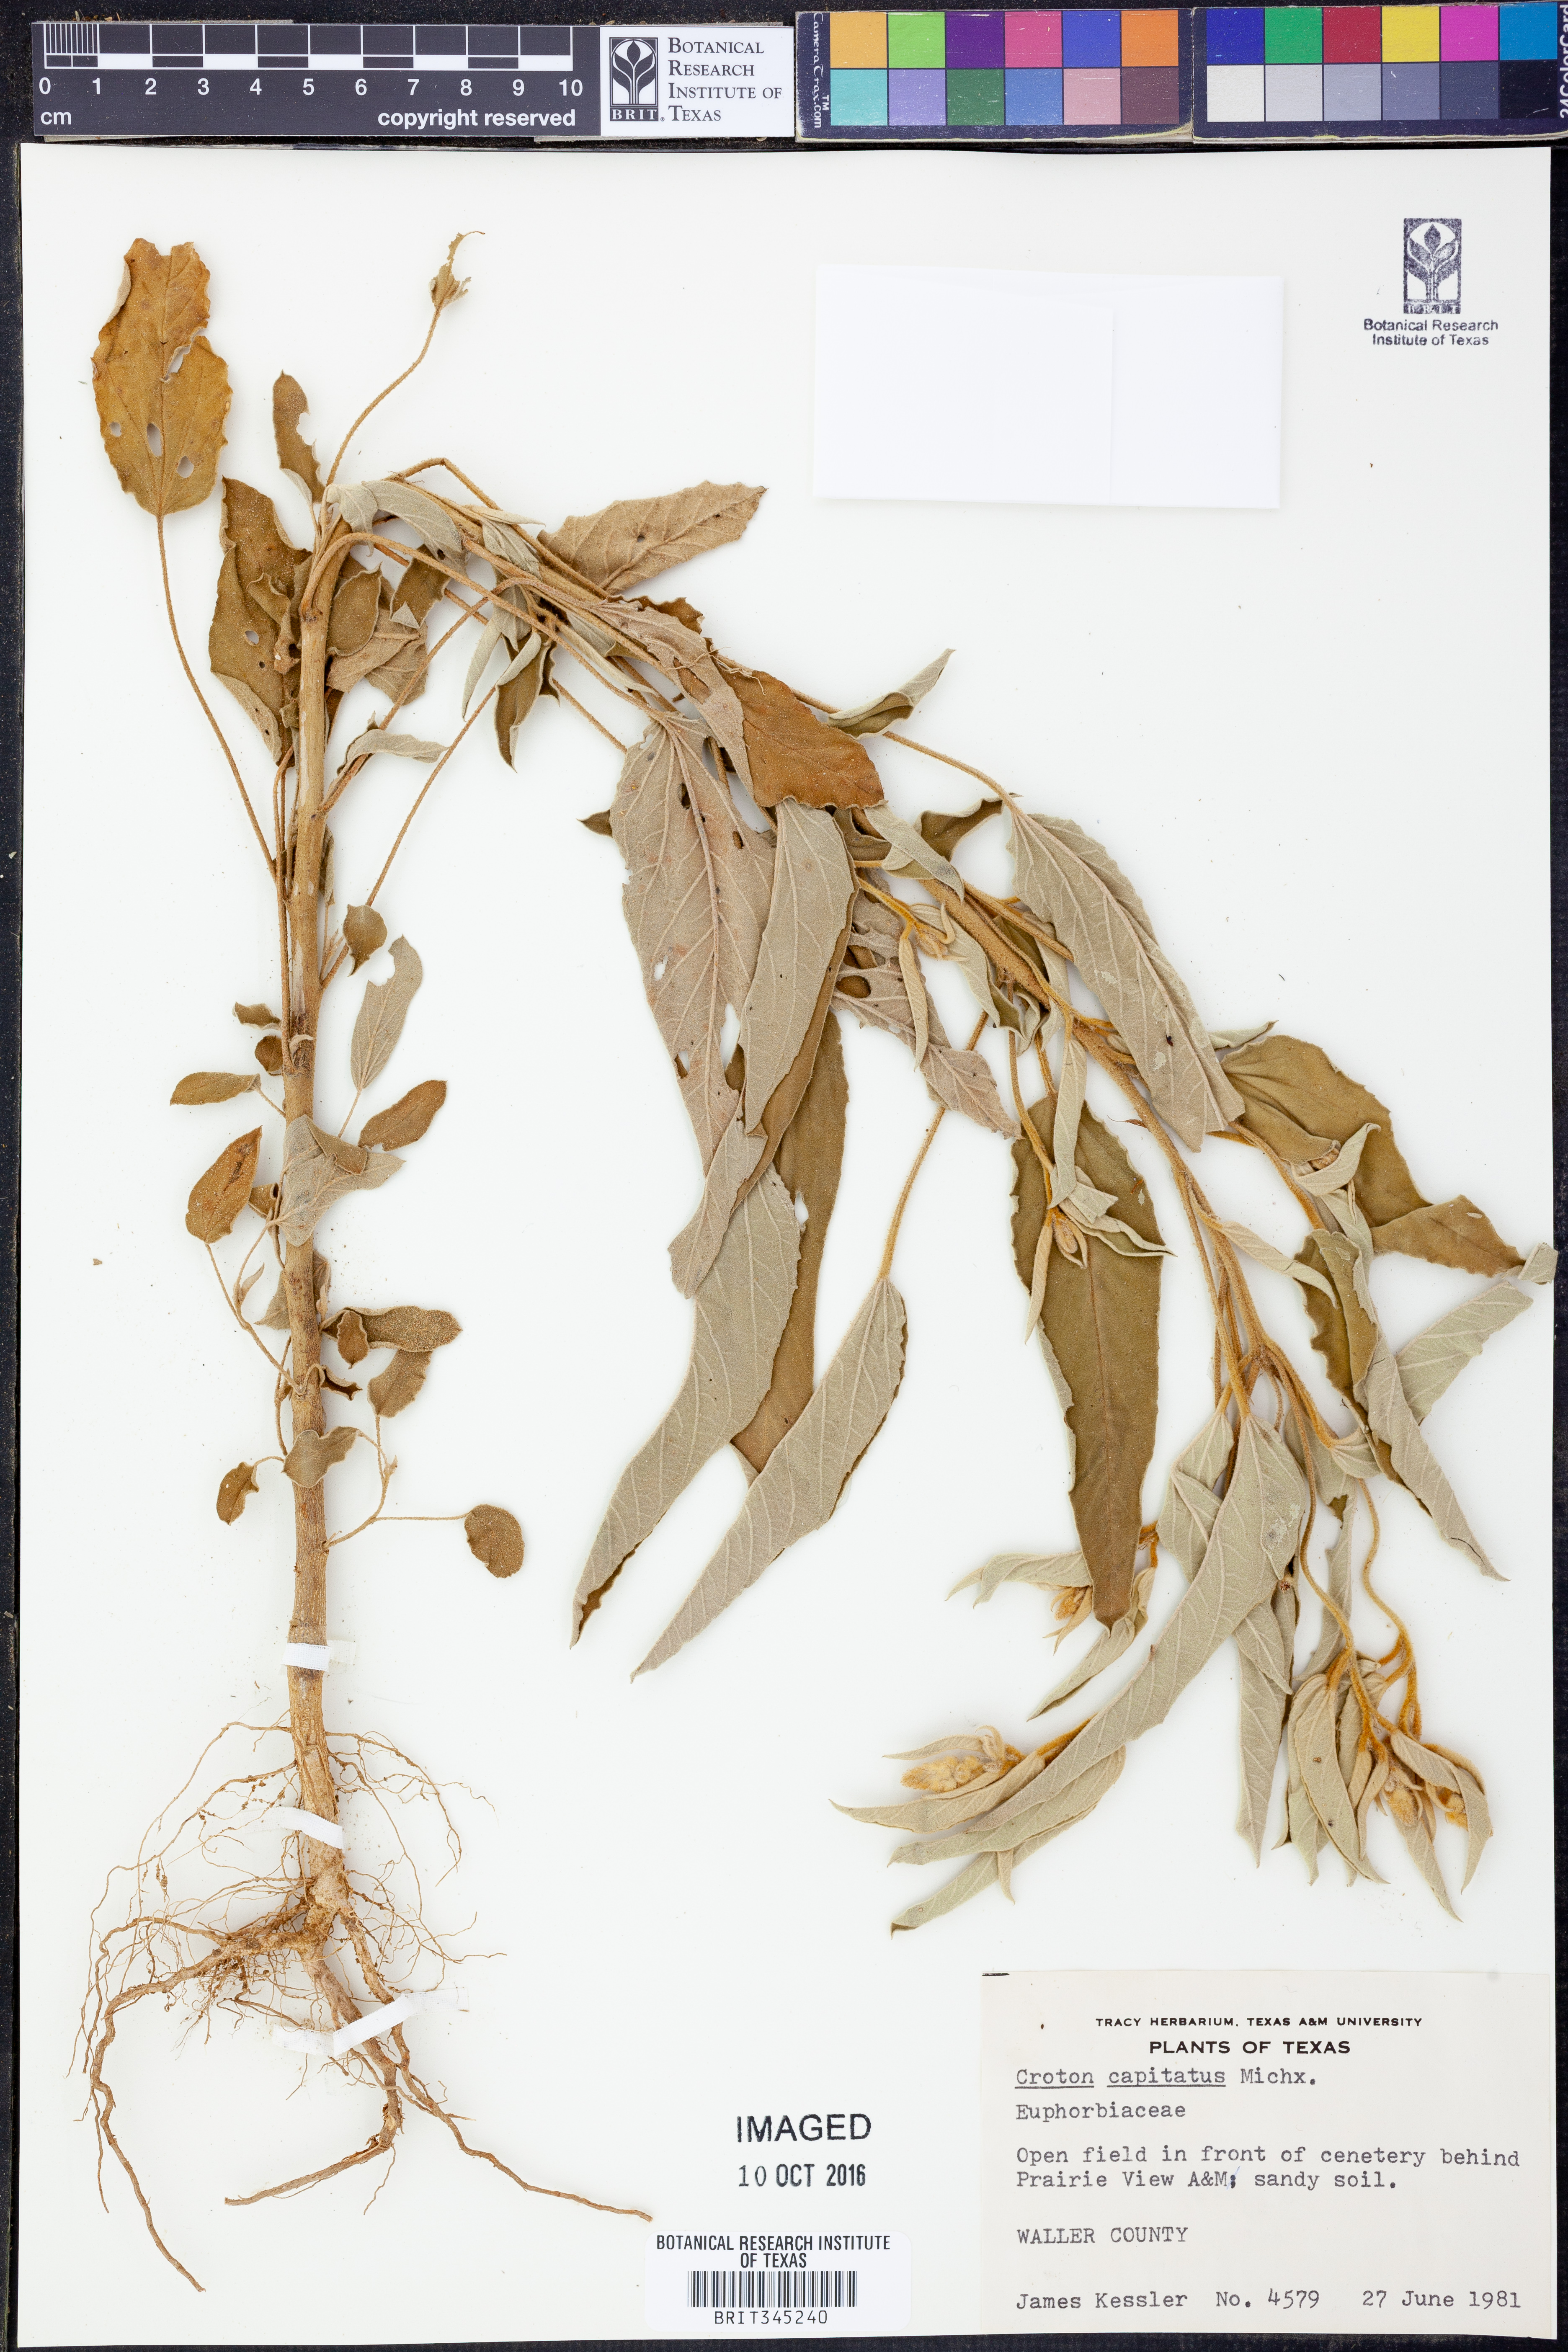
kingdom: Plantae
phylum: Tracheophyta
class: Magnoliopsida
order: Malpighiales
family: Euphorbiaceae
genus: Croton
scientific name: Croton capitatus
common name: Woolly croton
